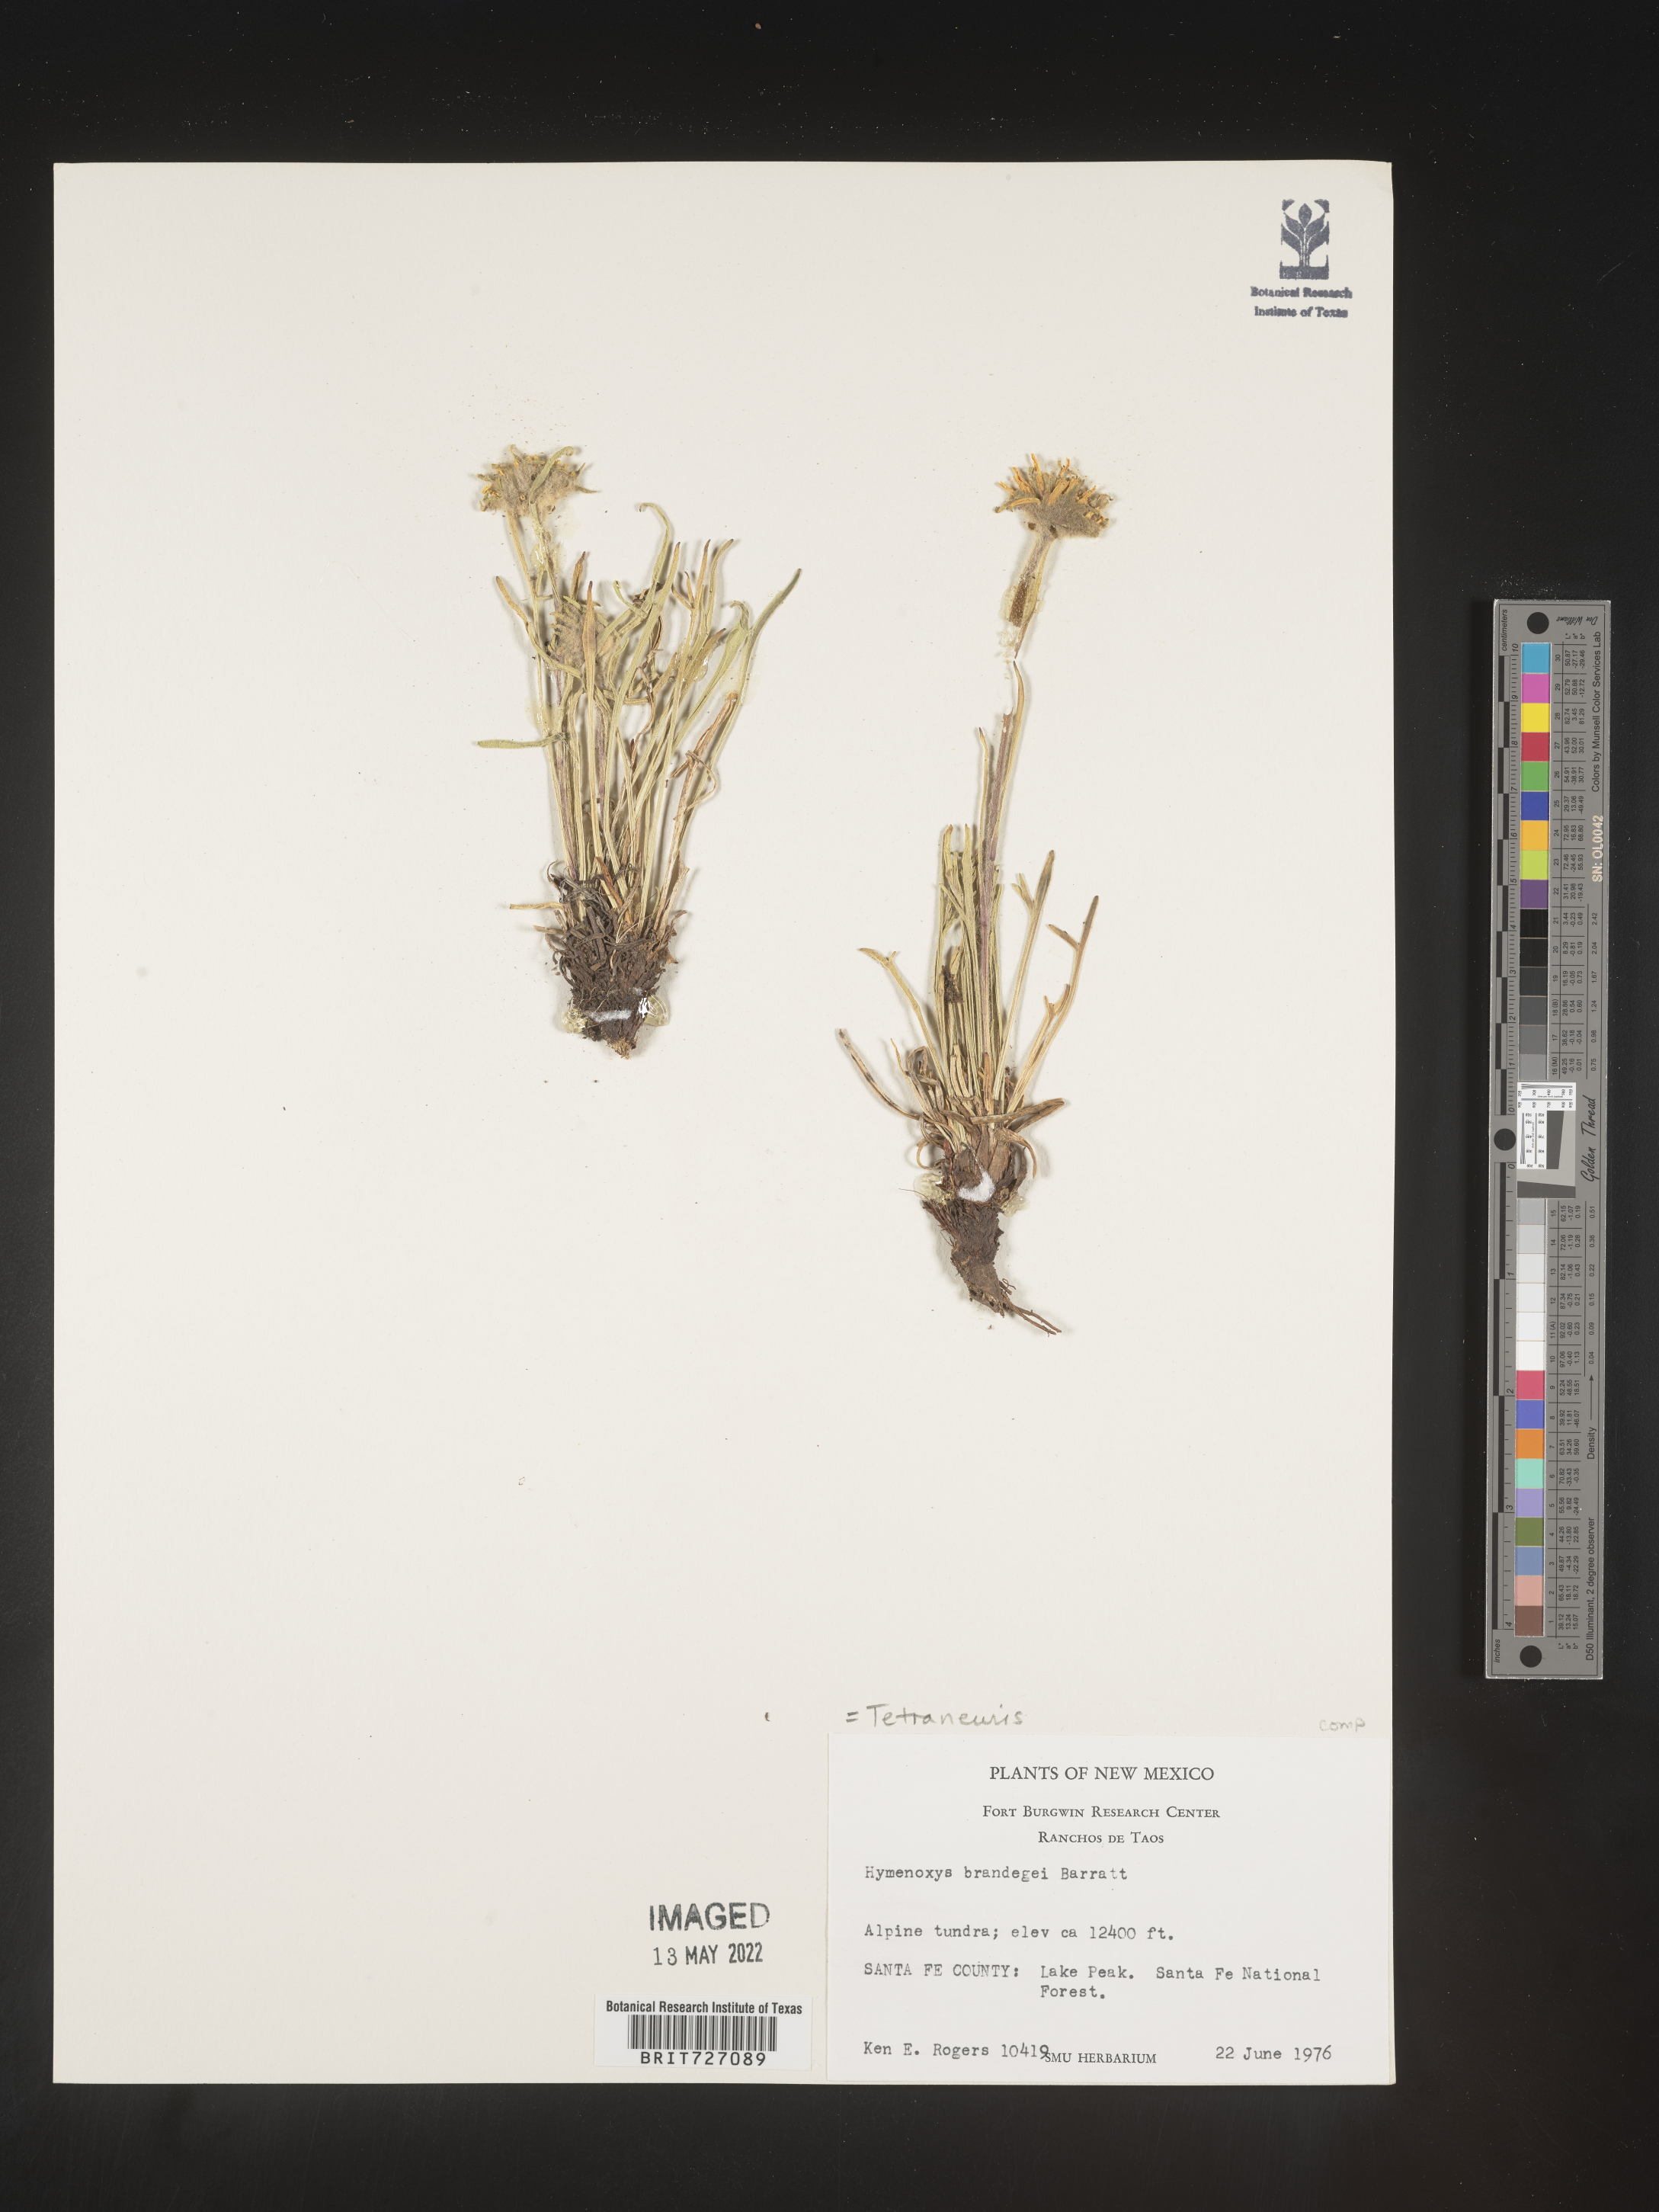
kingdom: Plantae
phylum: Tracheophyta
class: Magnoliopsida
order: Asterales
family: Asteraceae
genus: Hymenoxys
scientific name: Hymenoxys brandegeei
